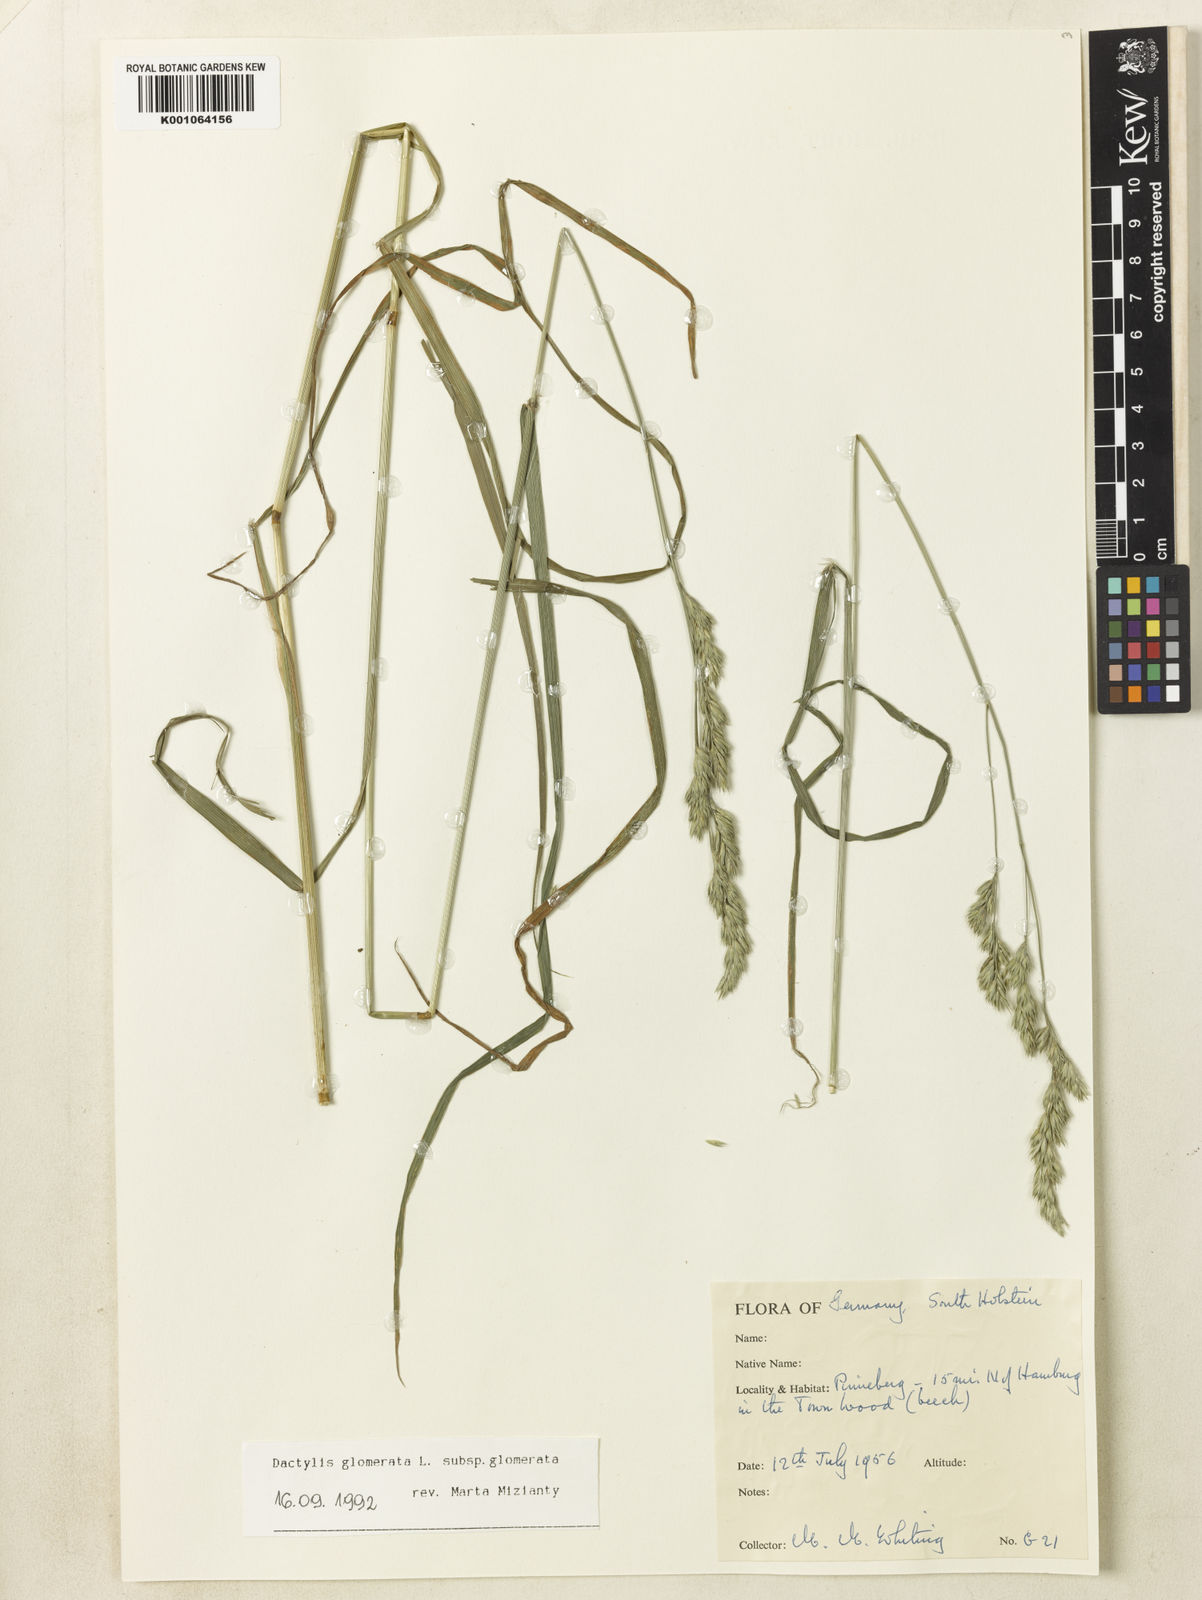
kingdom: Plantae
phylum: Tracheophyta
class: Liliopsida
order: Poales
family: Poaceae
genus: Dactylis
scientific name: Dactylis glomerata
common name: Orchardgrass
